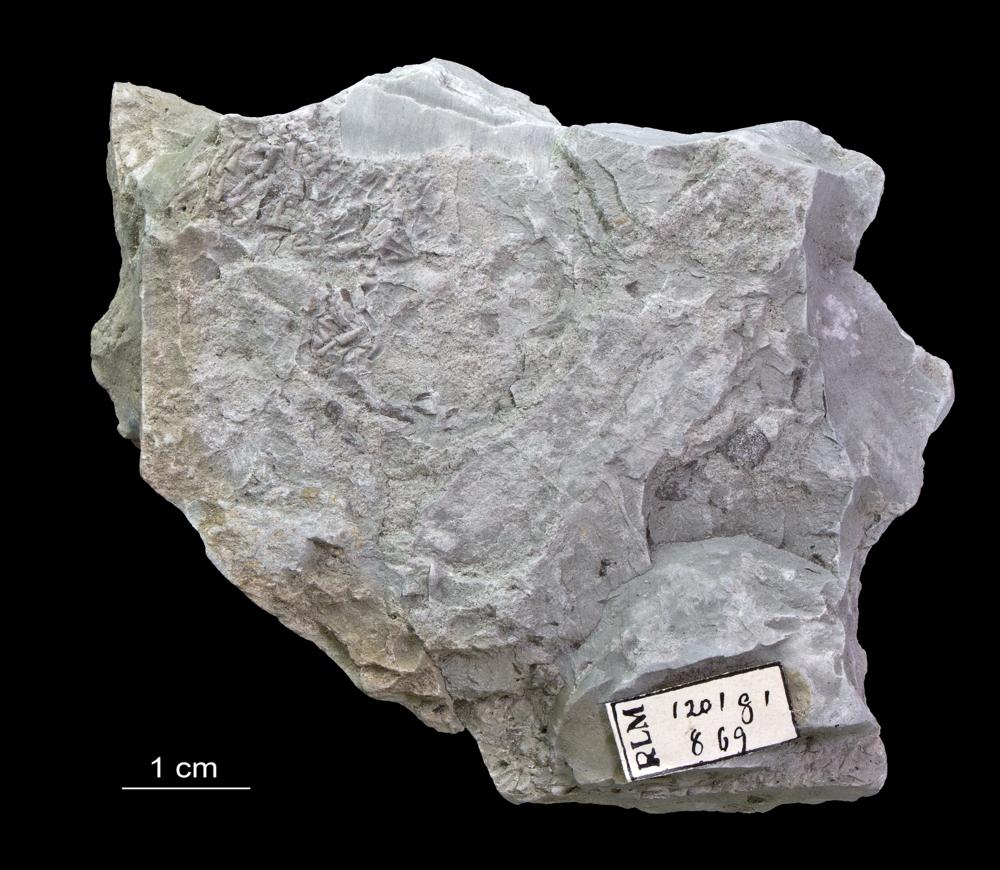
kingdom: Animalia
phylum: Annelida
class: Polychaeta
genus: Volborthella
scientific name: Volborthella tenuis
